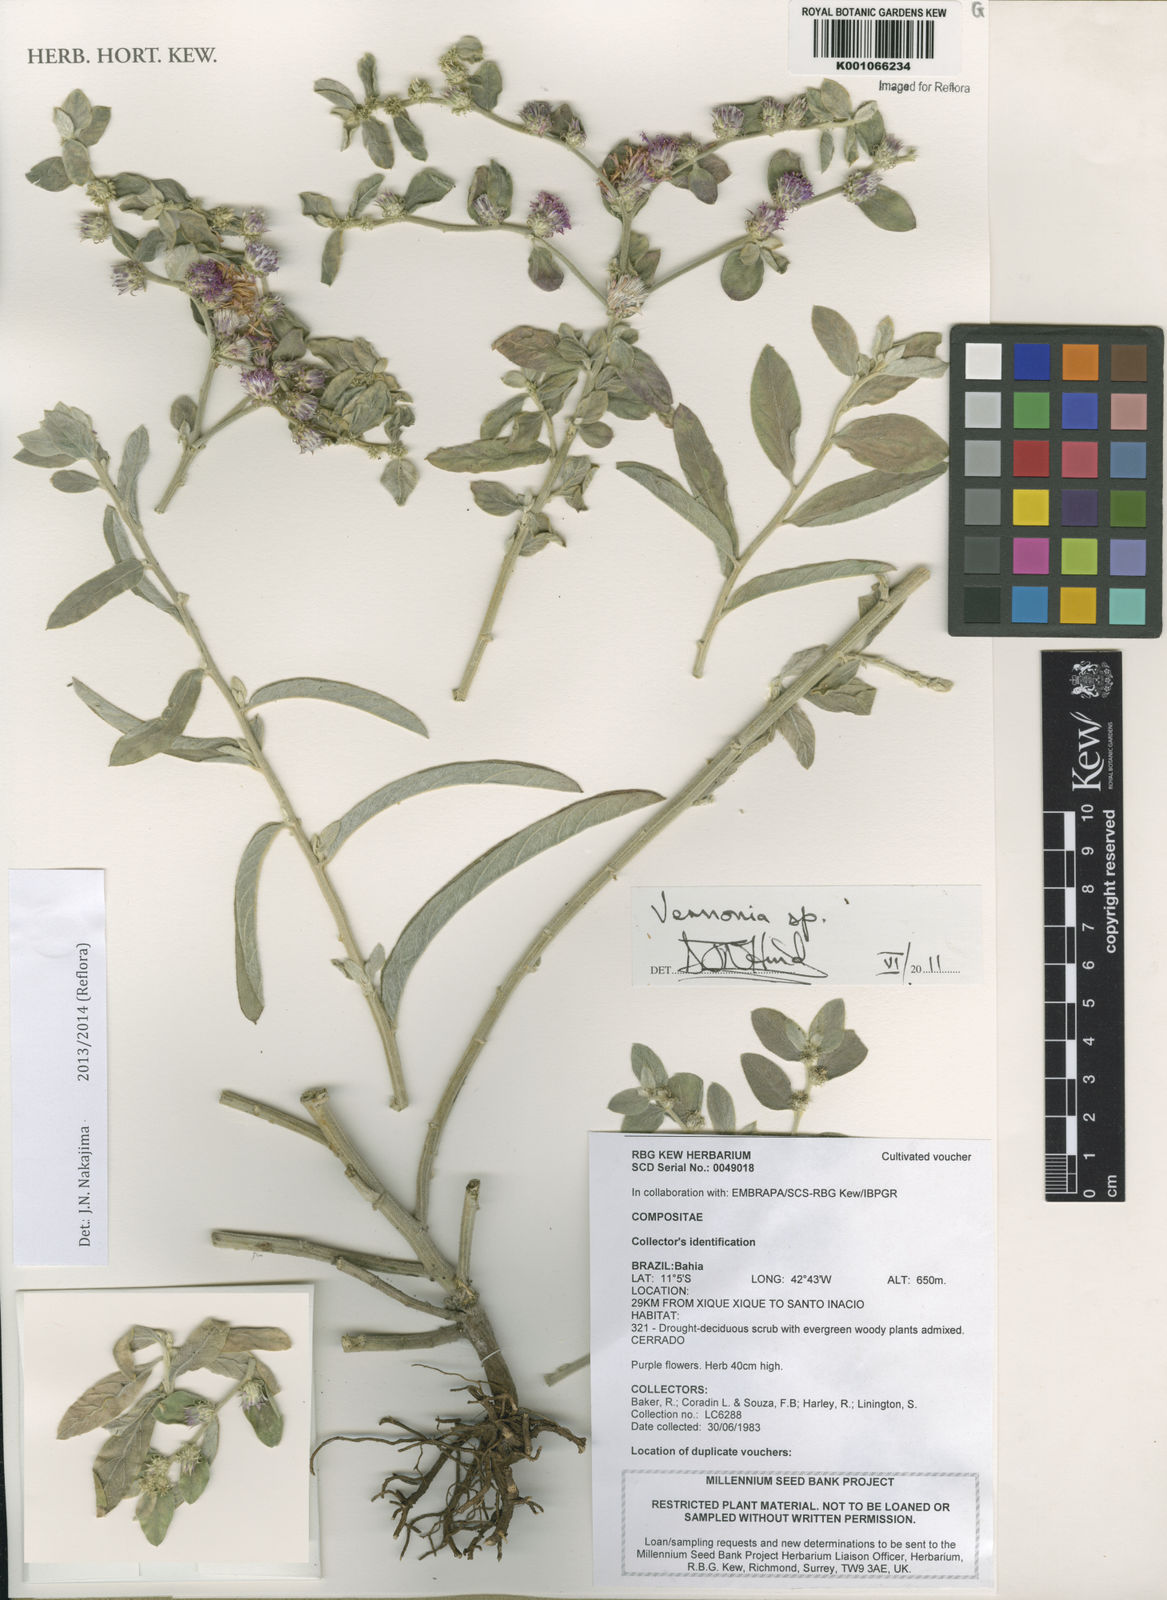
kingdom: Plantae
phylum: Tracheophyta
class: Magnoliopsida
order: Asterales
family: Asteraceae
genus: Lepidaploa
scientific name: Lepidaploa aurea
